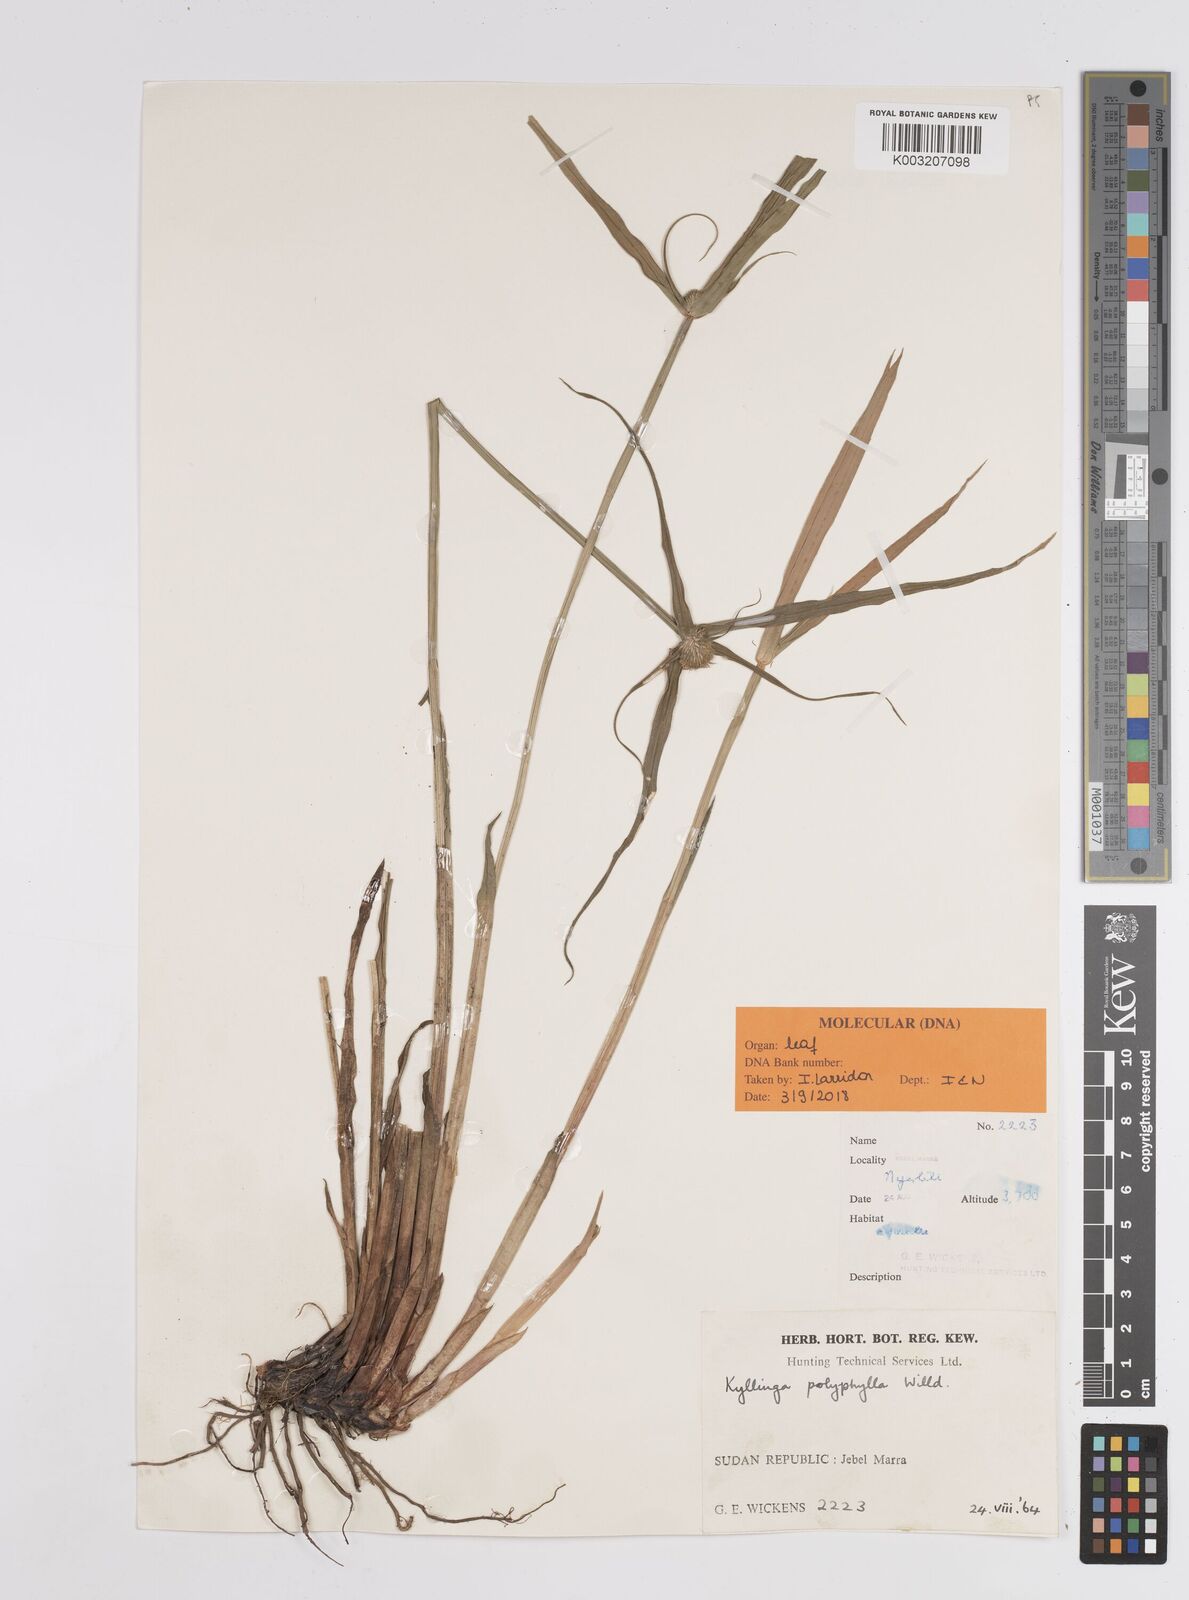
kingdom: Plantae
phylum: Tracheophyta
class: Liliopsida
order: Poales
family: Cyperaceae
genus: Cyperus
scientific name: Cyperus
